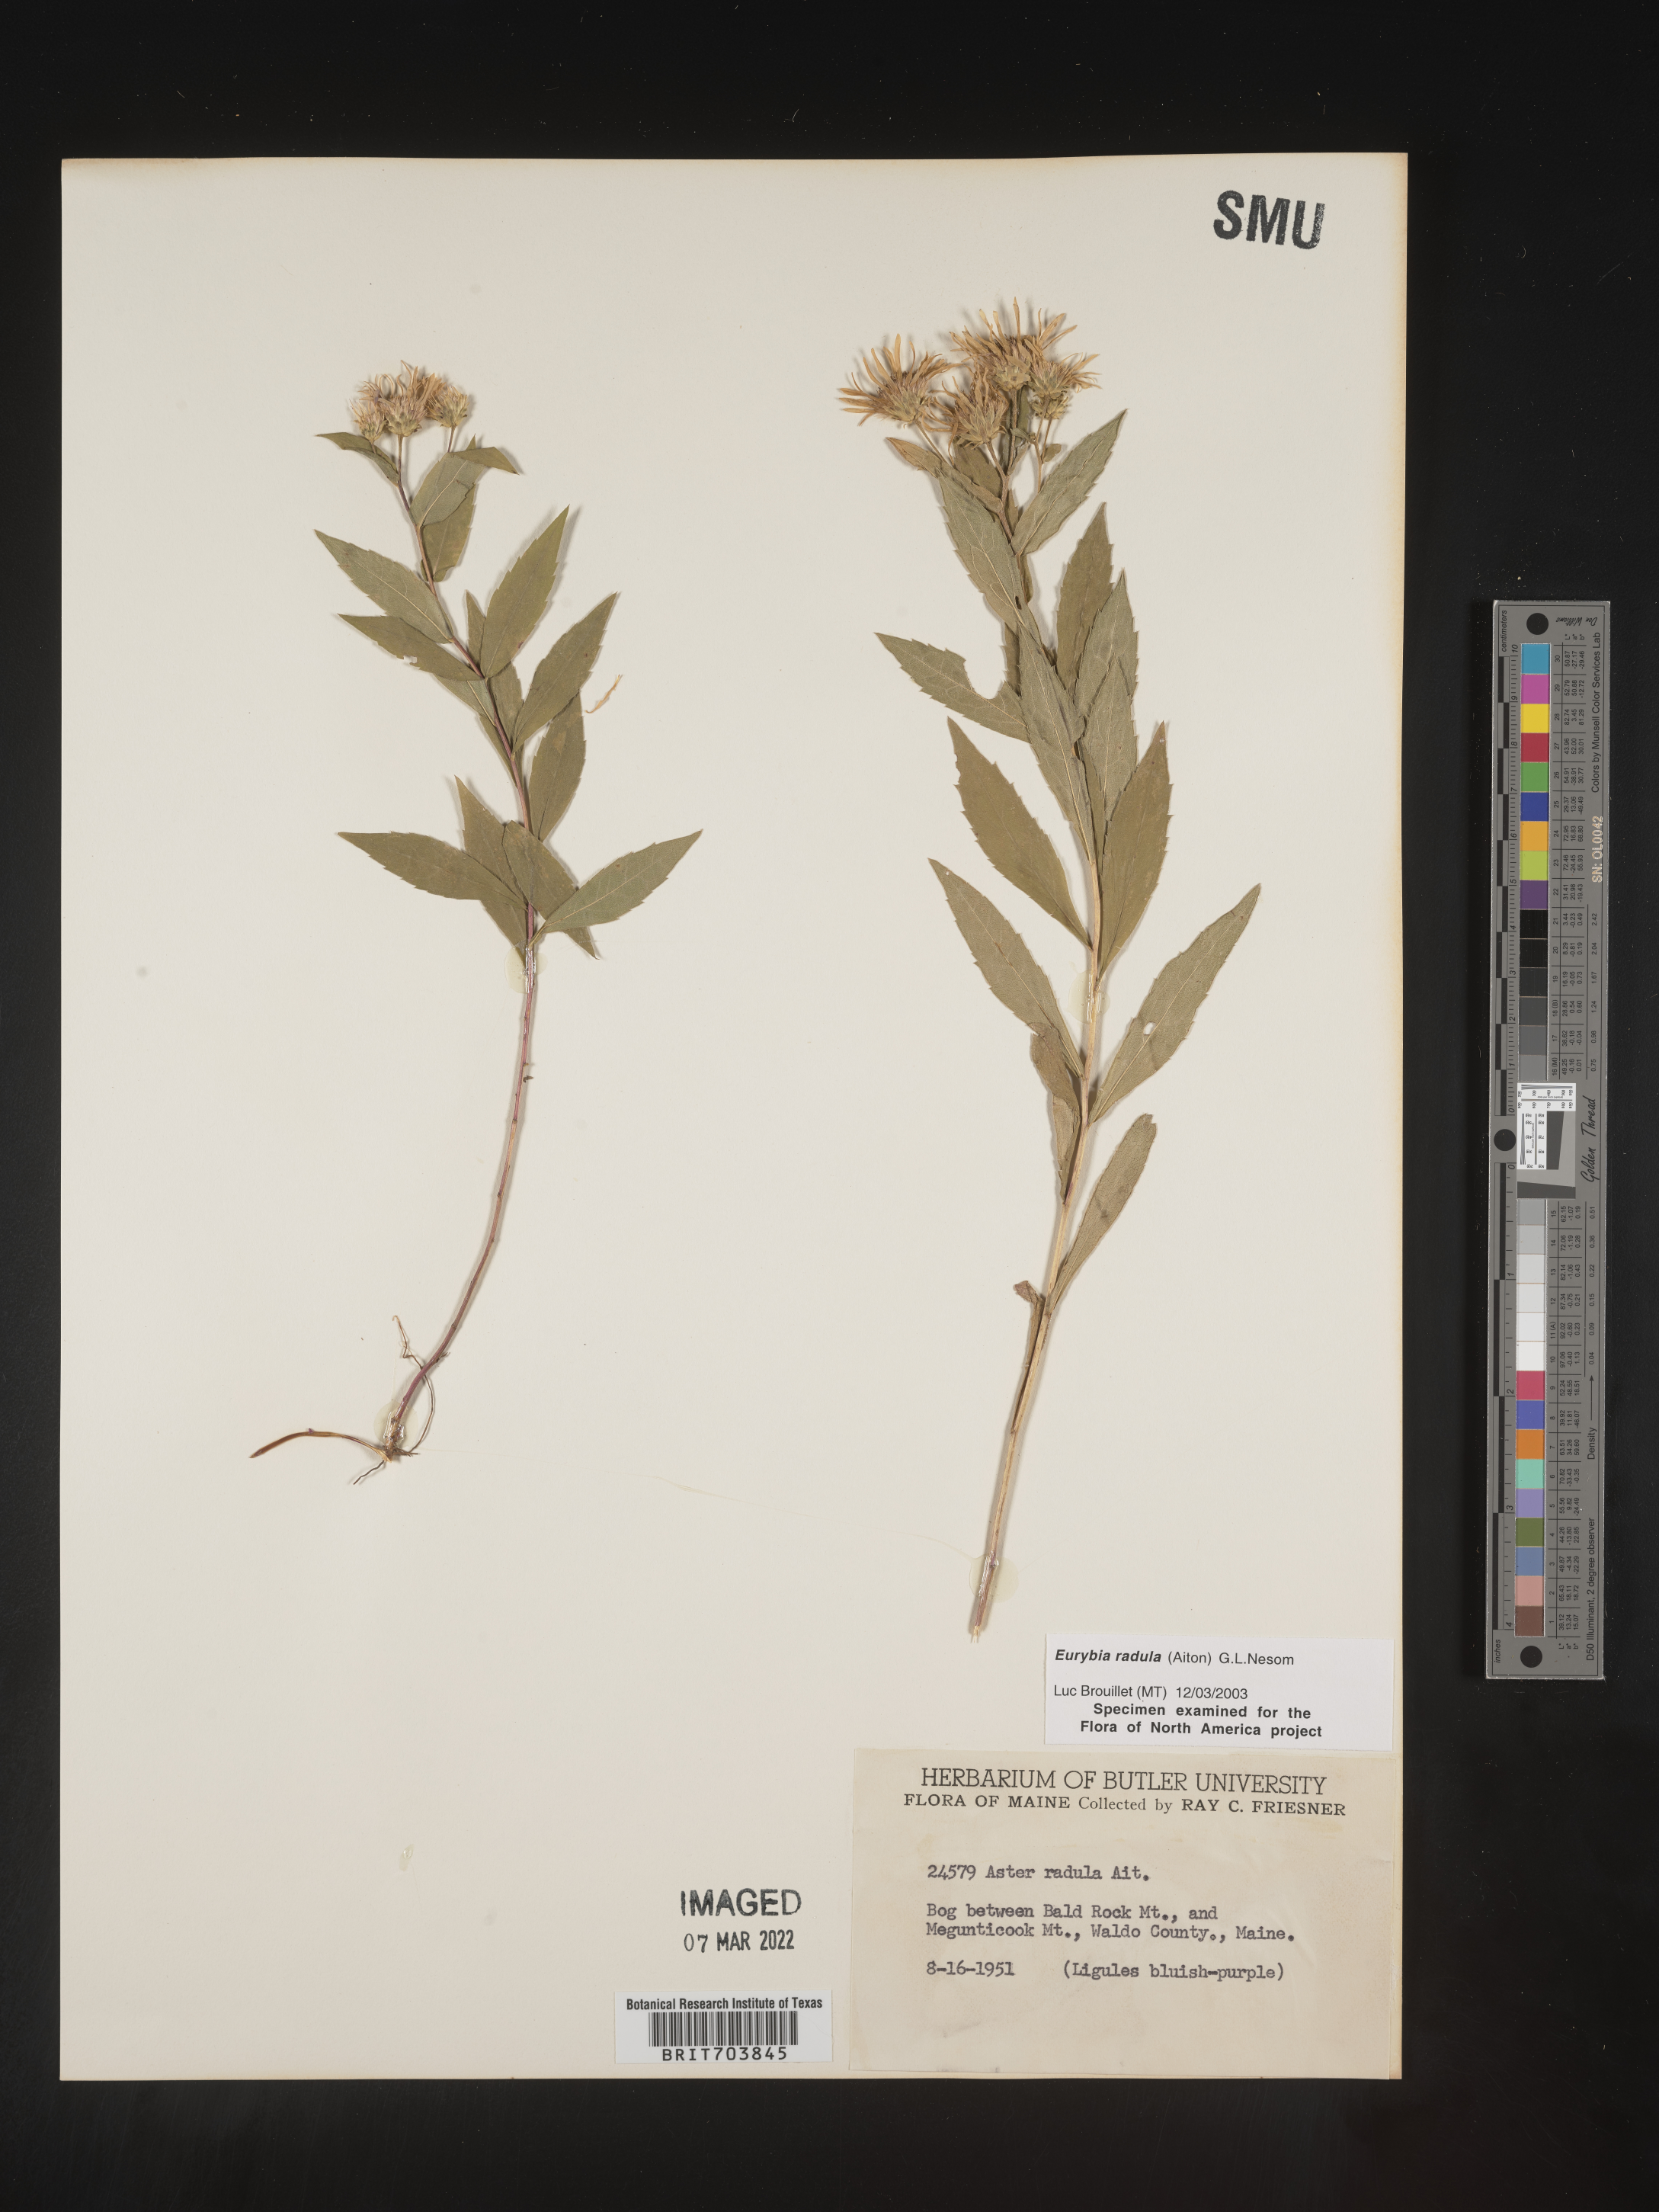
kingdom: Plantae
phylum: Tracheophyta
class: Magnoliopsida
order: Asterales
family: Asteraceae
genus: Eurybia
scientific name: Eurybia radula
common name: Low rough aster
